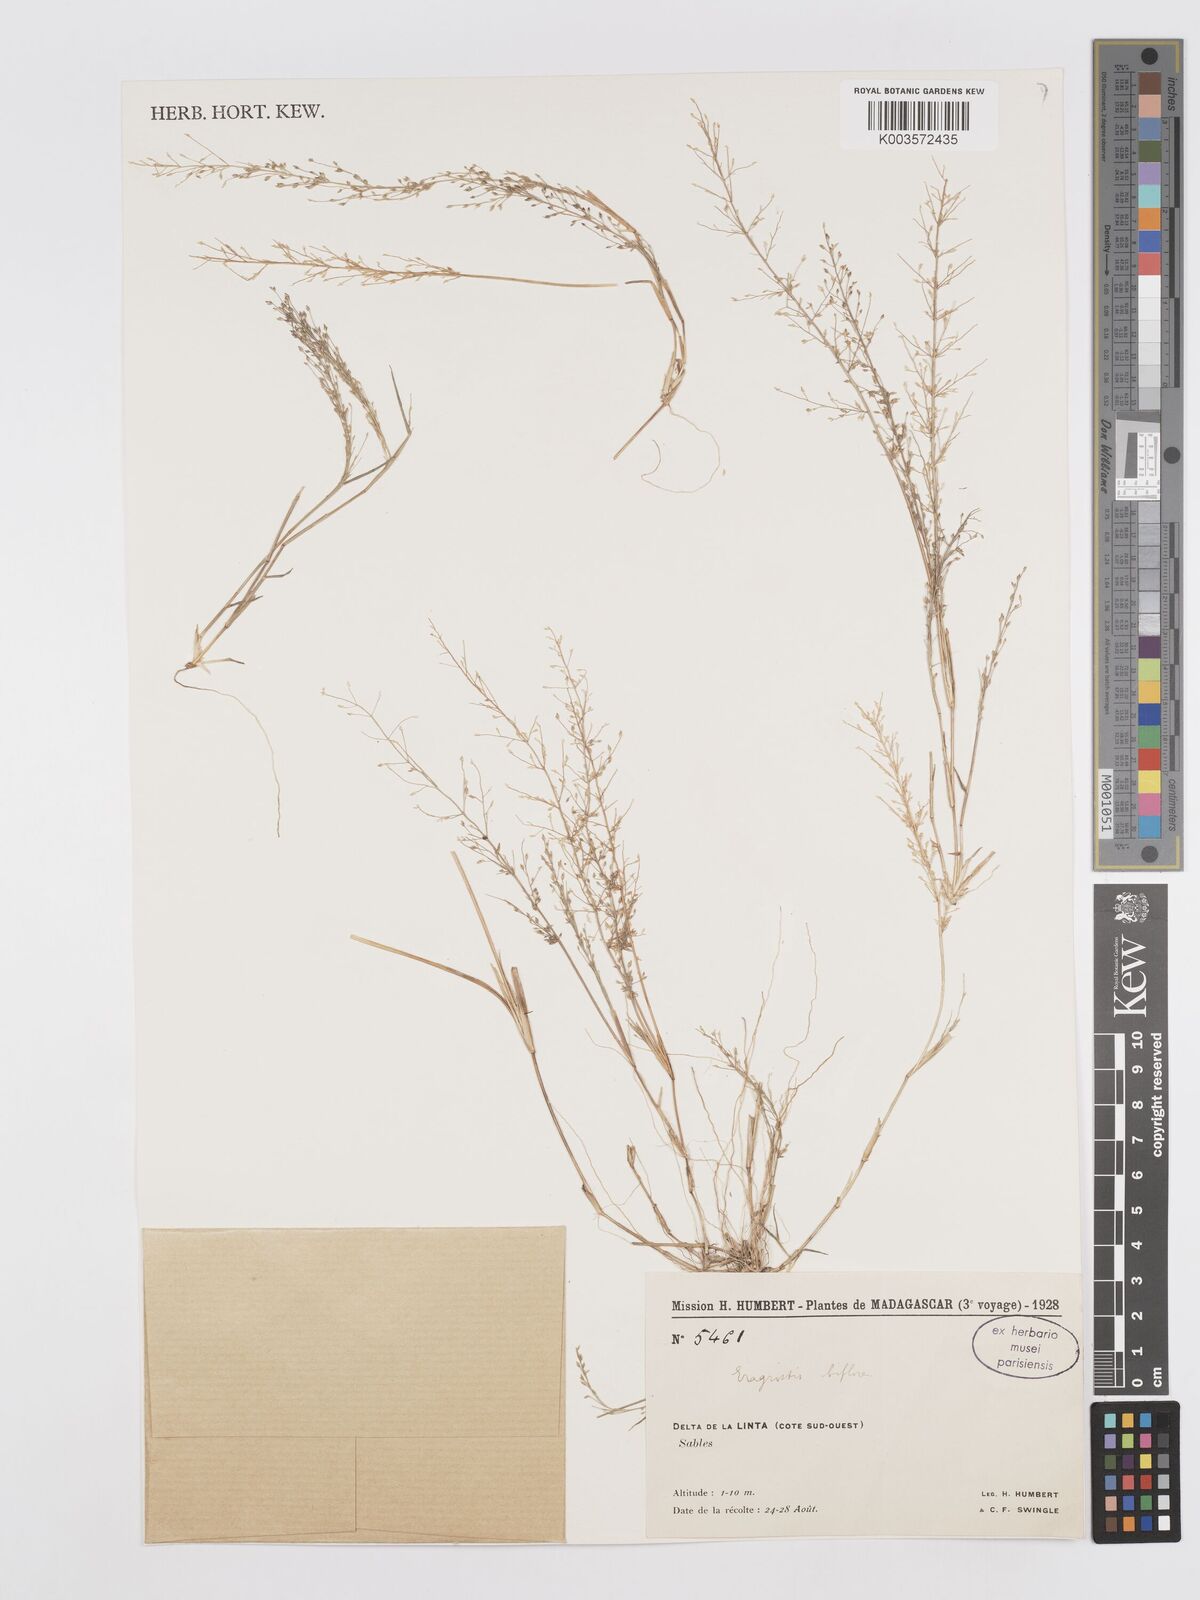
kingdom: Plantae
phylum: Tracheophyta
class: Liliopsida
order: Poales
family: Poaceae
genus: Eragrostis
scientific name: Eragrostis chabouisii
